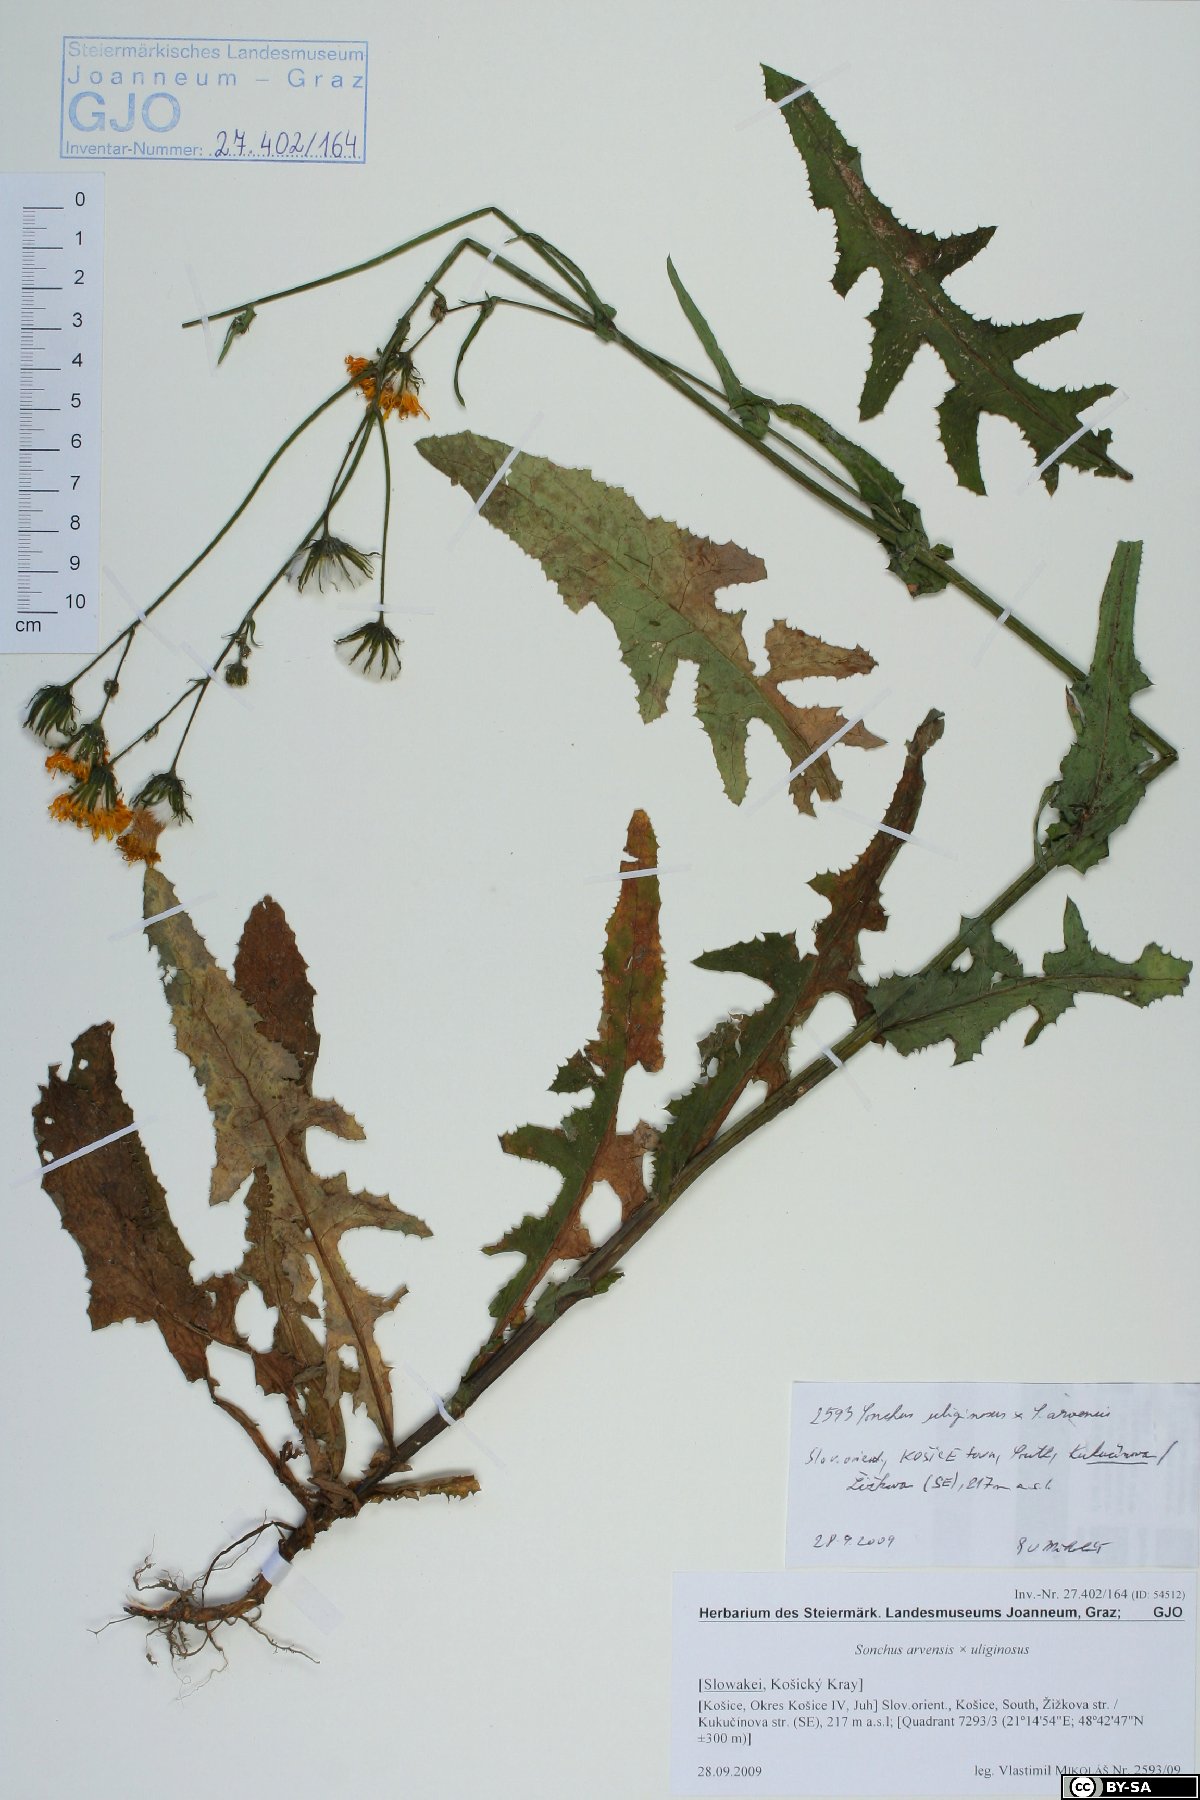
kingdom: Plantae
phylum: Tracheophyta
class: Magnoliopsida
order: Asterales
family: Asteraceae
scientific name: Asteraceae
